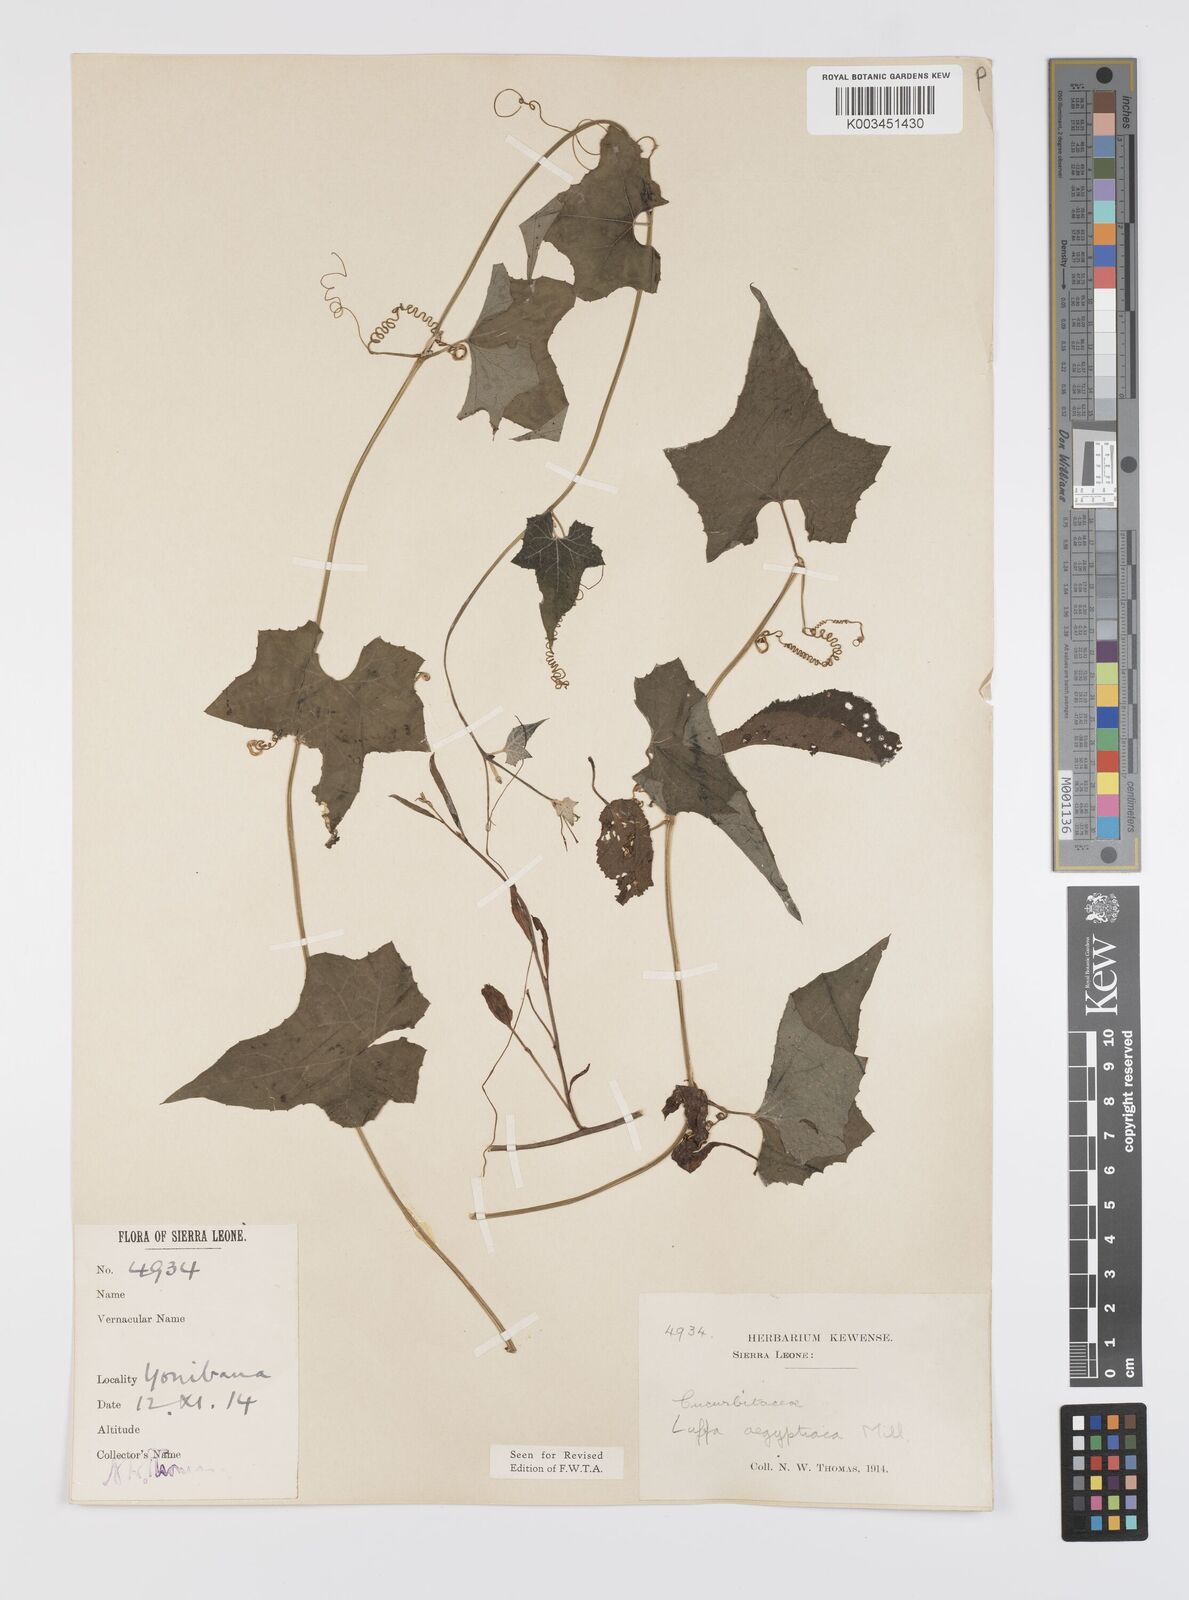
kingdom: Plantae
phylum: Tracheophyta
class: Magnoliopsida
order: Cucurbitales
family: Cucurbitaceae
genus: Luffa
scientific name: Luffa aegyptiaca
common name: Sponge gourd
